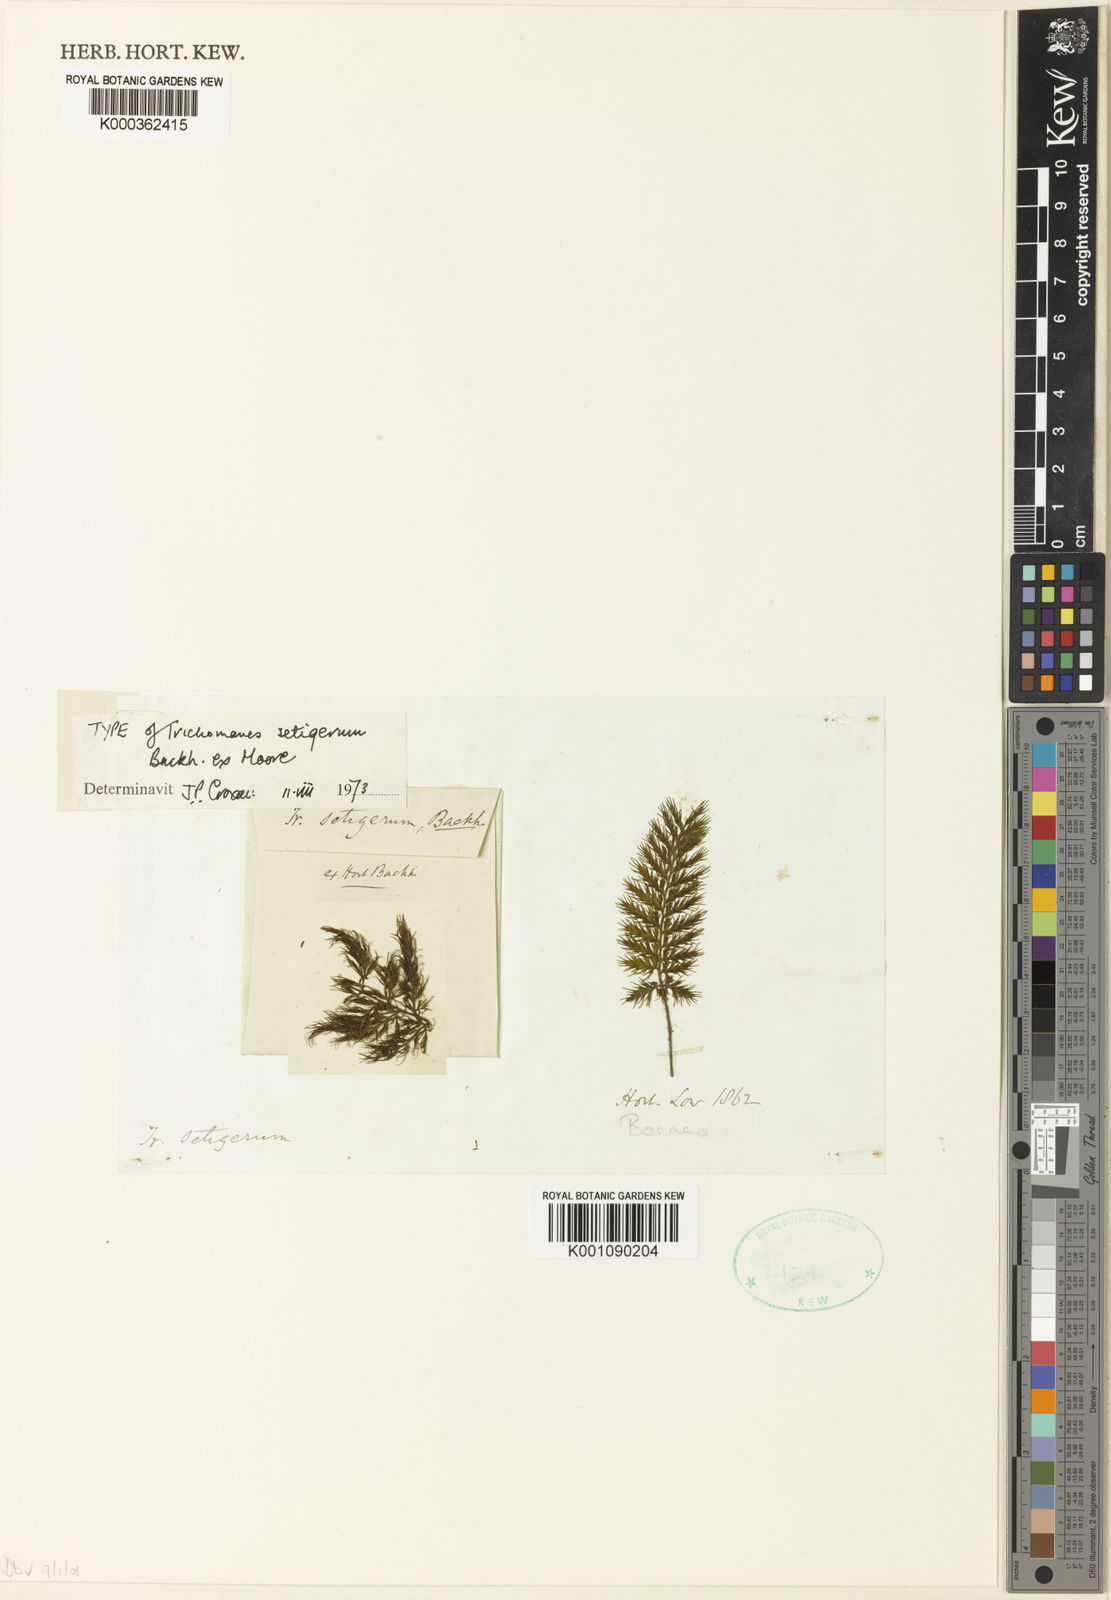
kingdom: Plantae
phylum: Tracheophyta
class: Polypodiopsida
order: Hymenophyllales
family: Hymenophyllaceae
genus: Trichomanes
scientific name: Trichomanes
